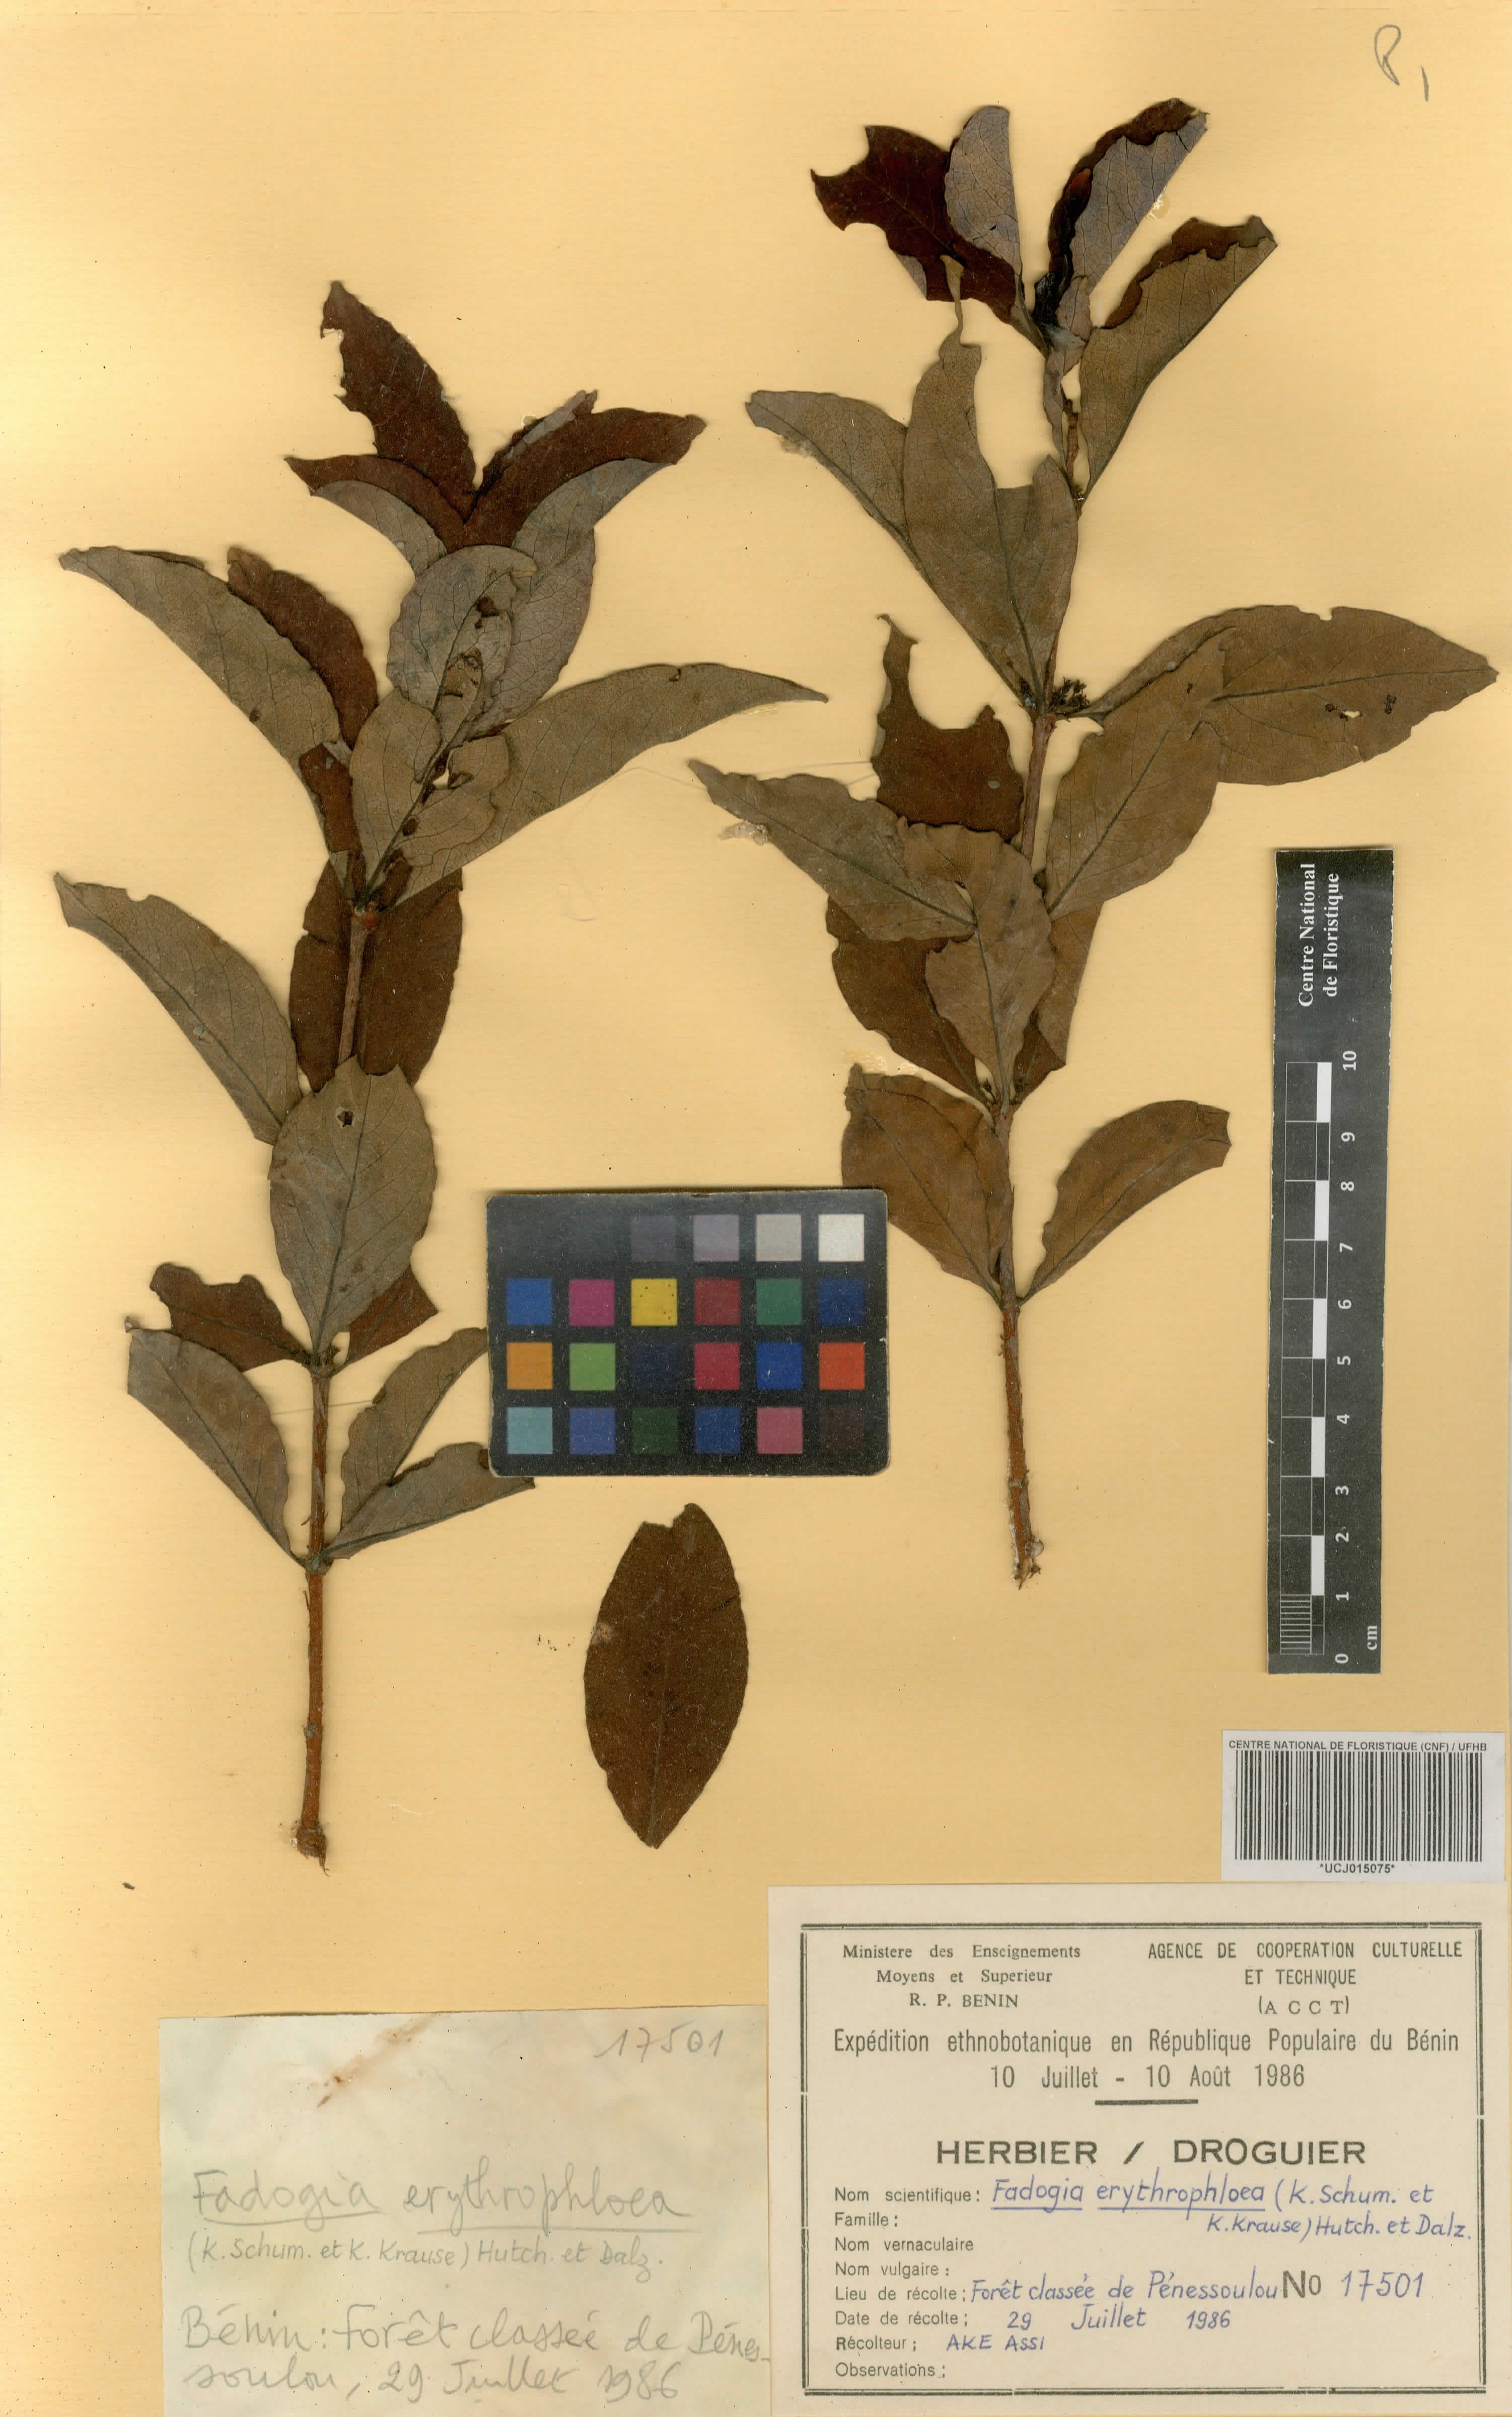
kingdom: Plantae
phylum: Tracheophyta
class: Magnoliopsida
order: Gentianales
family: Rubiaceae
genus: Fadogia
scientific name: Fadogia erythrophloea
